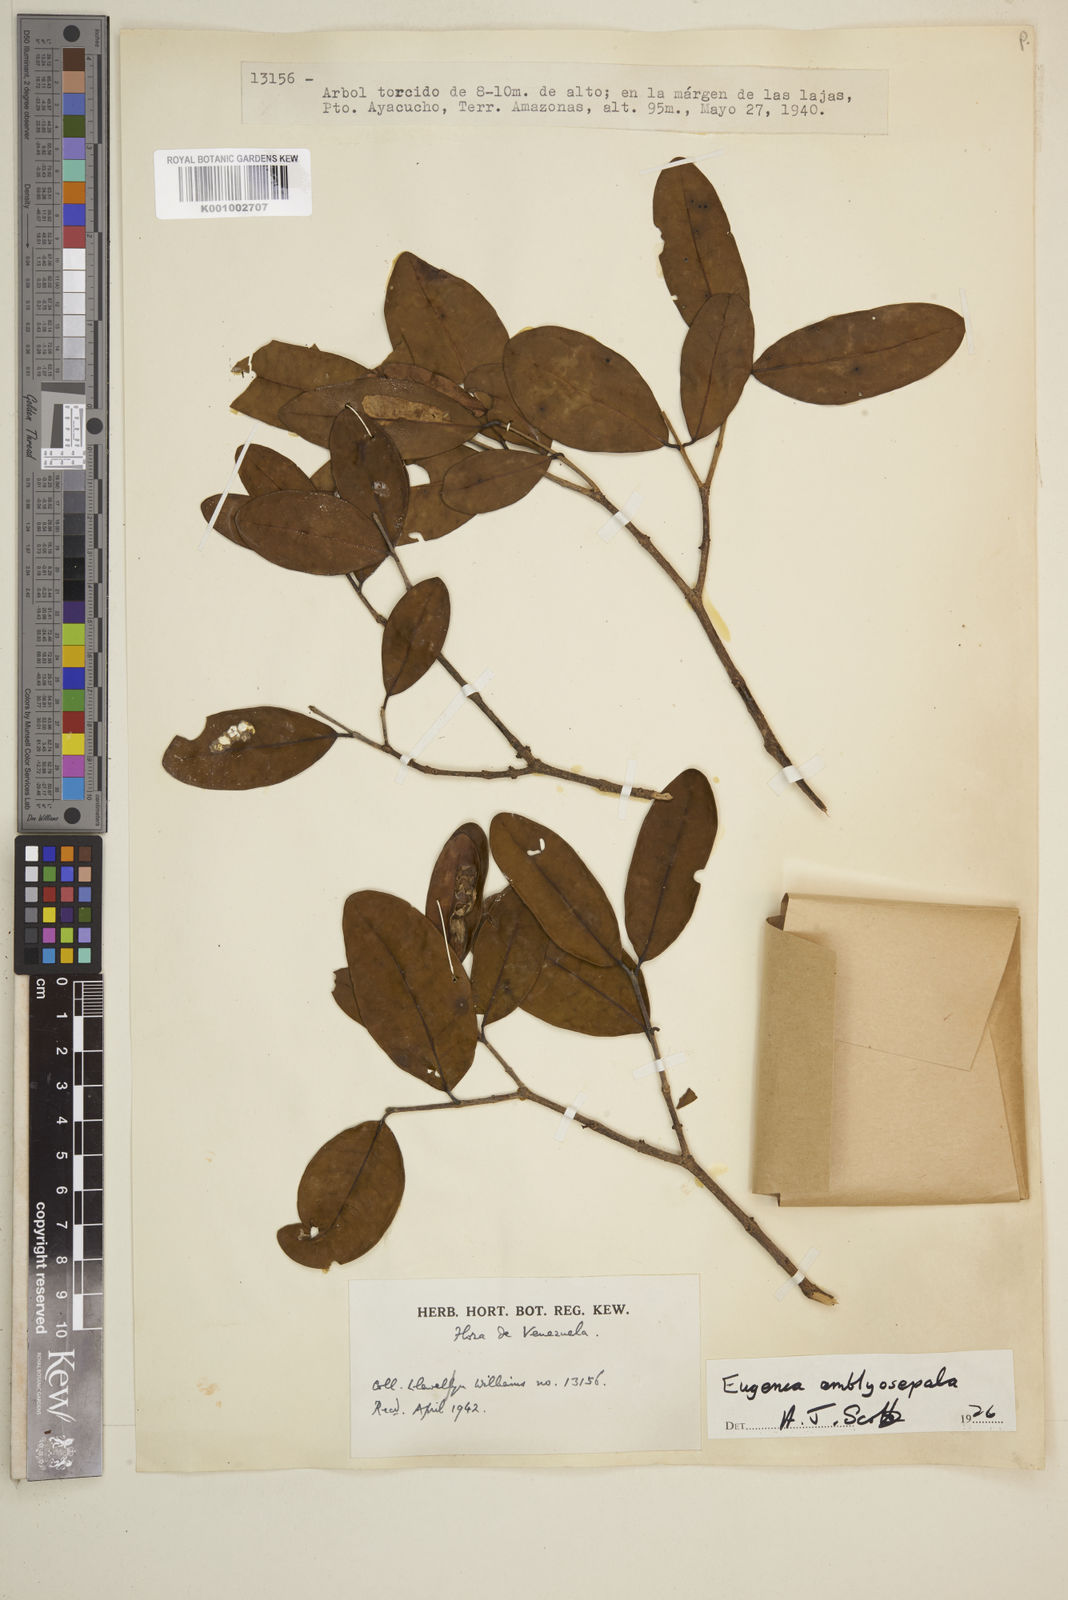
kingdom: Plantae
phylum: Tracheophyta
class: Magnoliopsida
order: Myrtales
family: Myrtaceae
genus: Eugenia
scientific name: Eugenia amblyosepala
